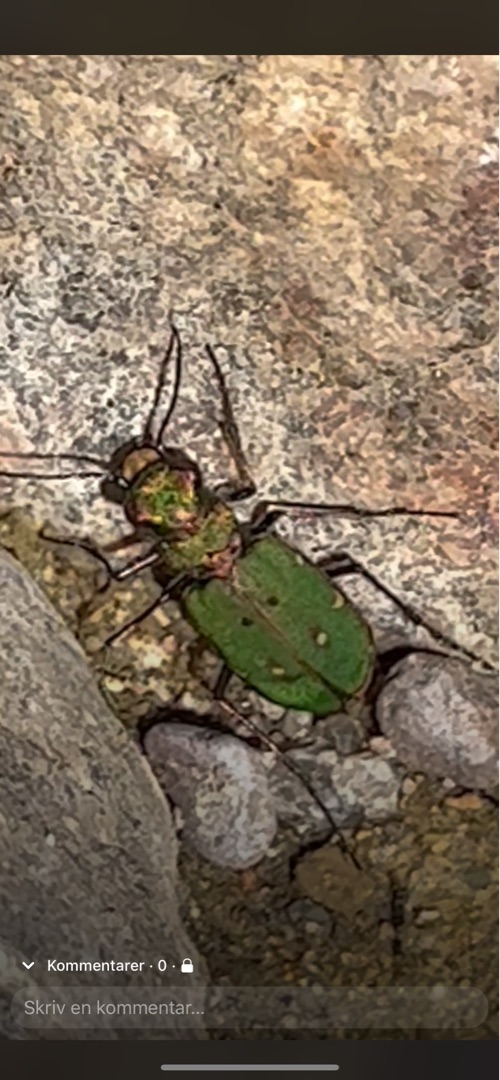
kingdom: Animalia
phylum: Arthropoda
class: Insecta
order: Coleoptera
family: Carabidae
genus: Cicindela
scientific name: Cicindela campestris
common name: Grøn sandspringer
